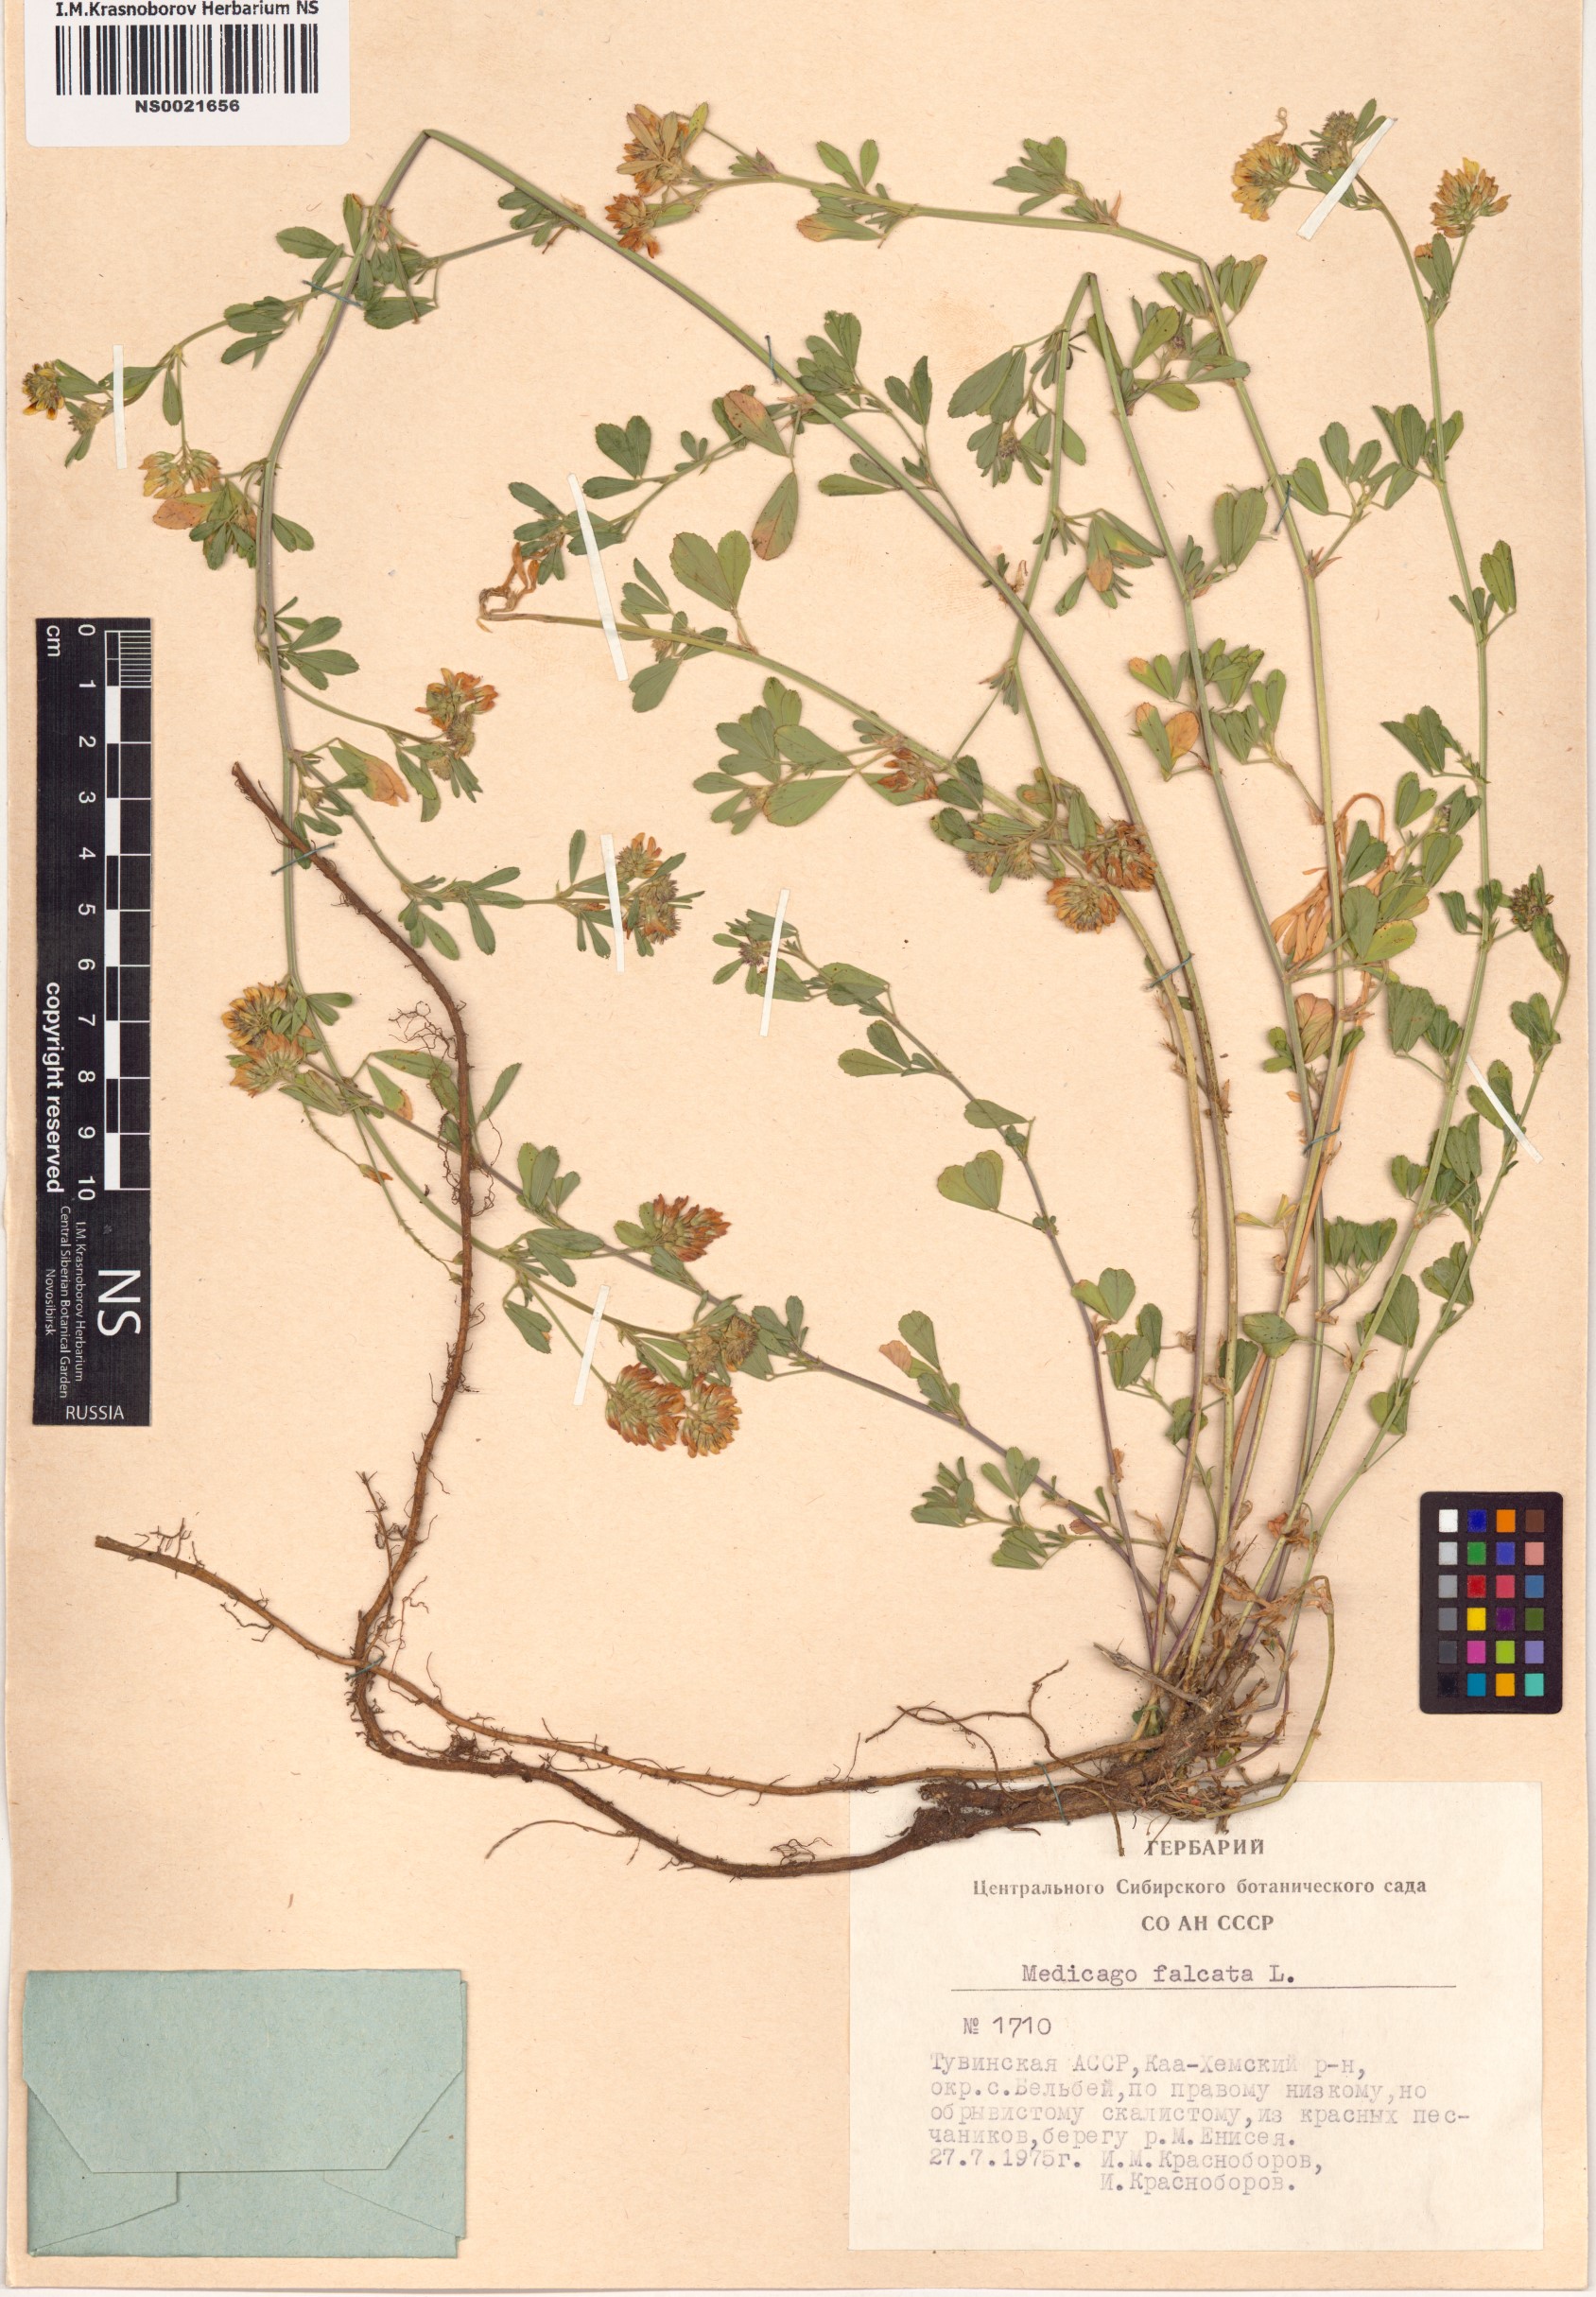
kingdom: Plantae
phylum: Tracheophyta
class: Magnoliopsida
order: Fabales
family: Fabaceae
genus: Medicago
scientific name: Medicago falcata
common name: Sickle medick
